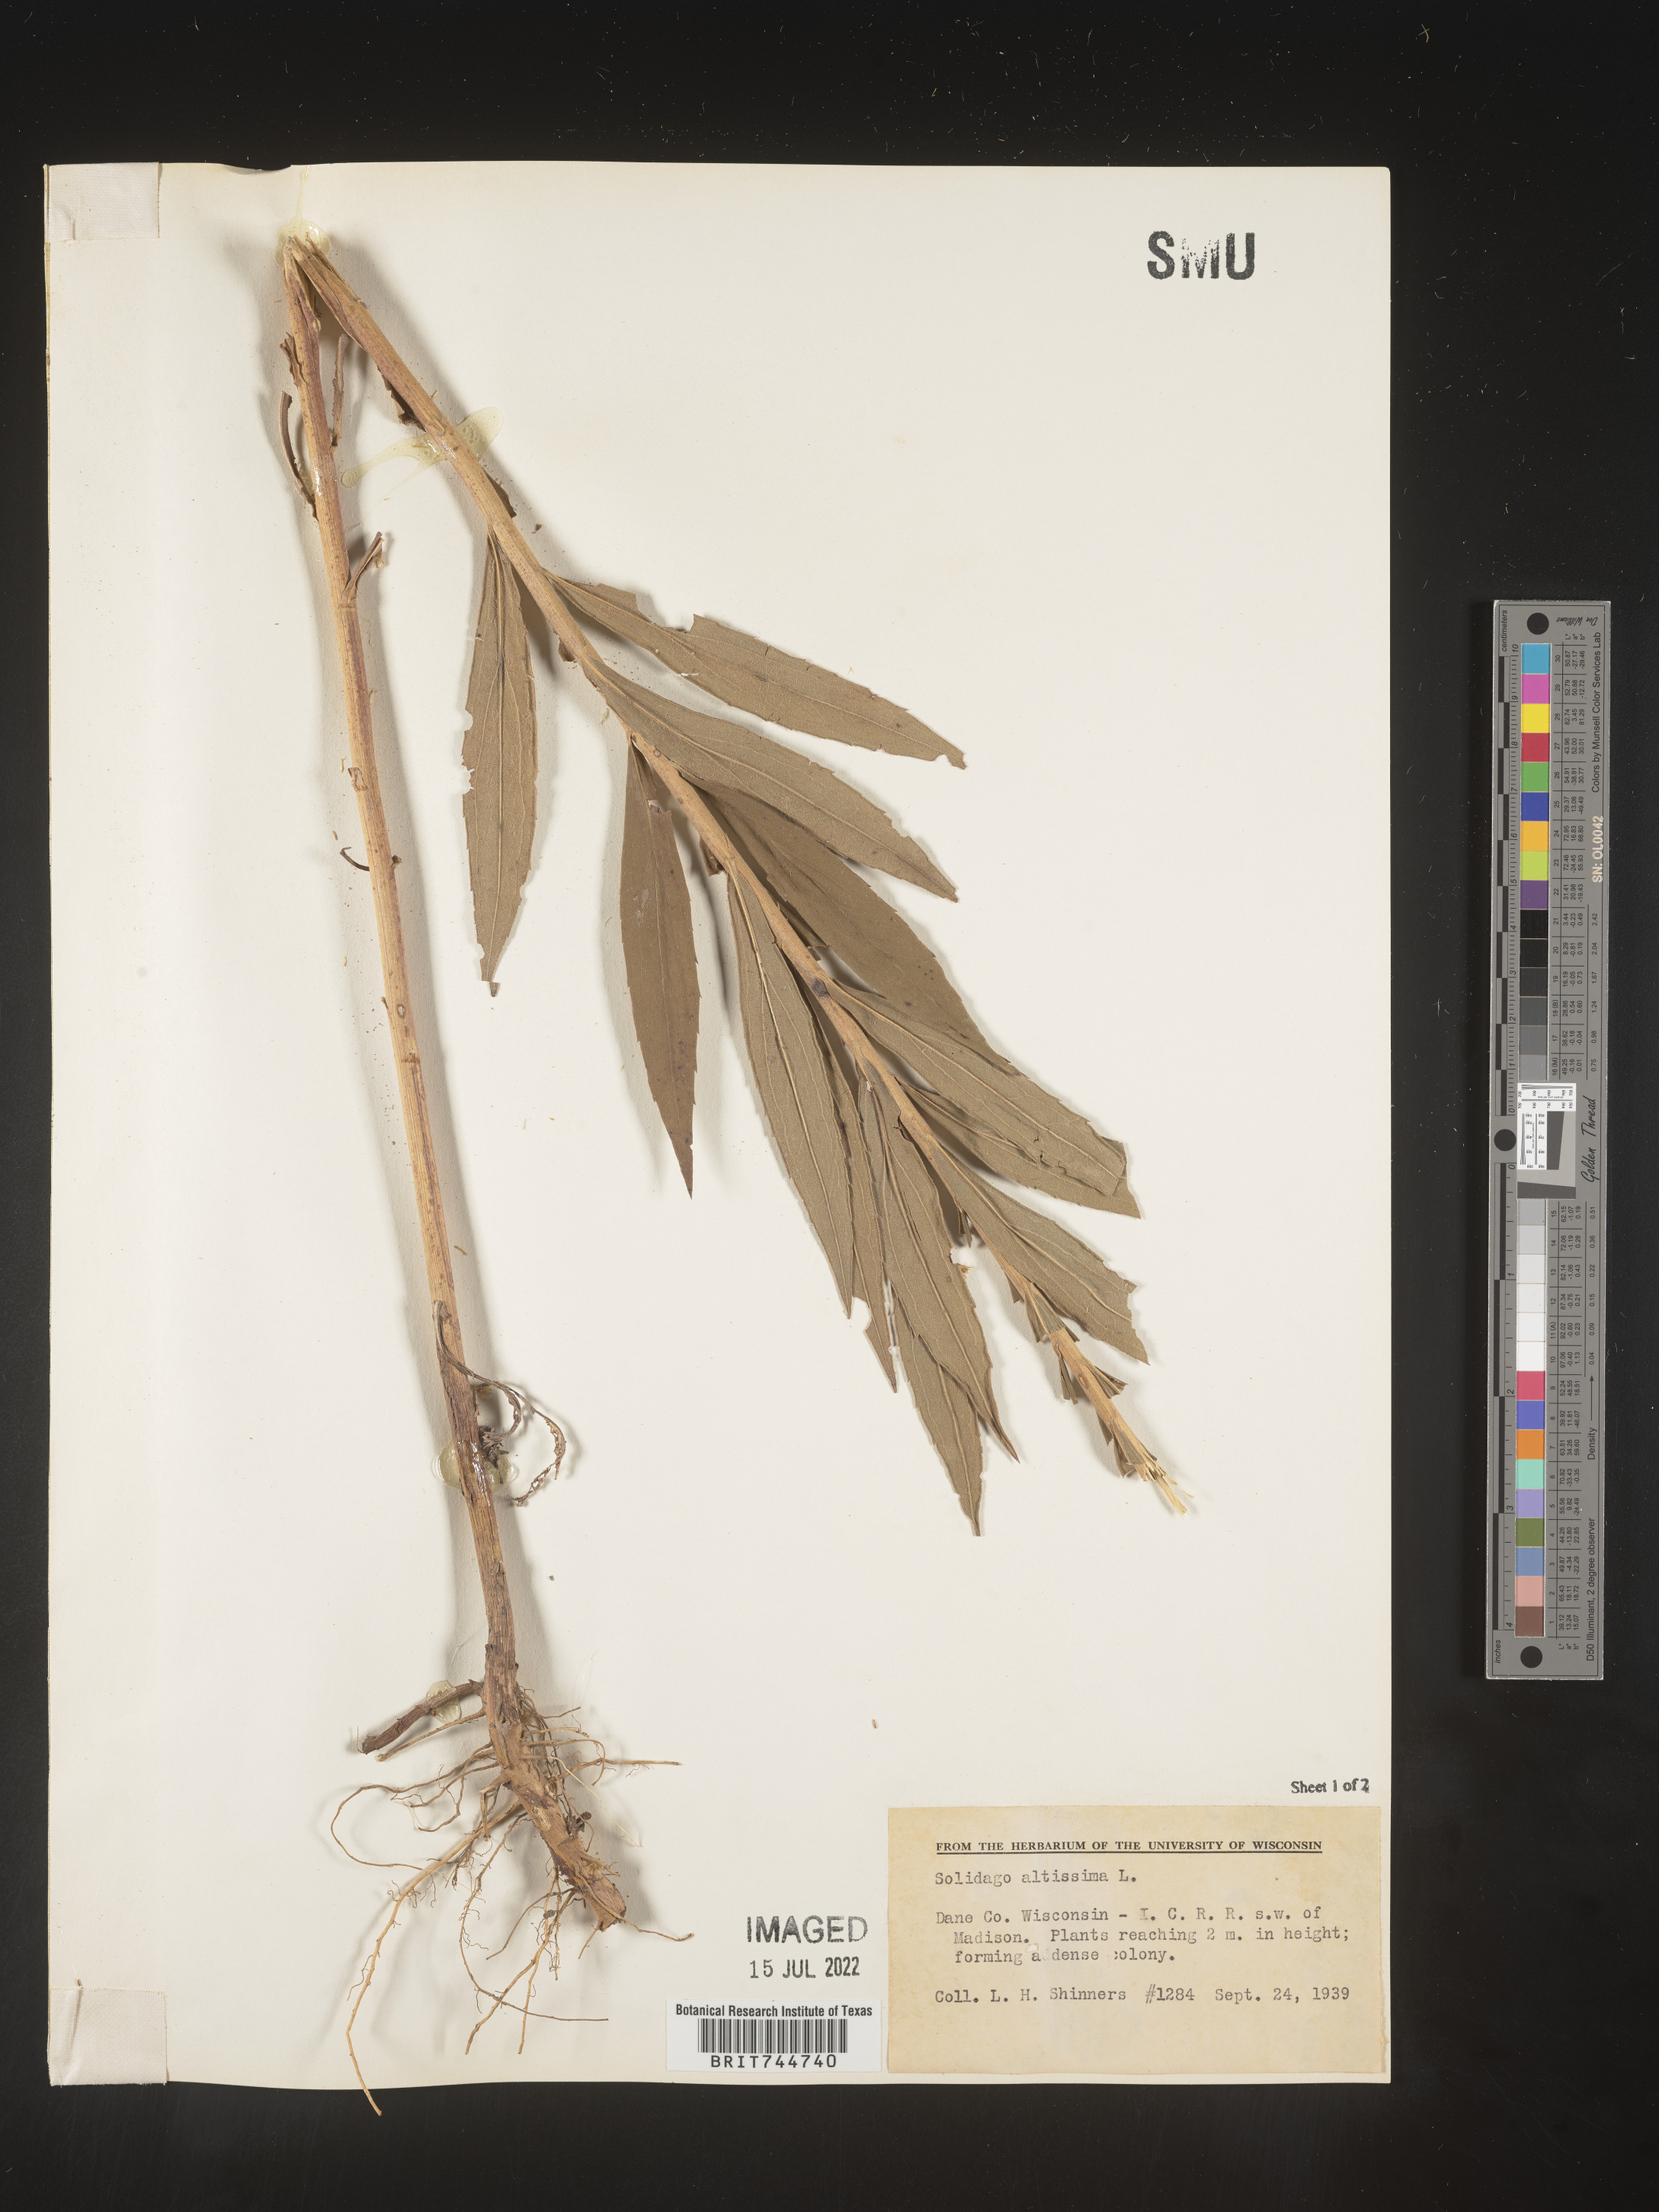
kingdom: Plantae
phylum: Tracheophyta
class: Magnoliopsida
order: Asterales
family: Asteraceae
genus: Solidago
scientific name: Solidago canadensis
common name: Canada goldenrod
